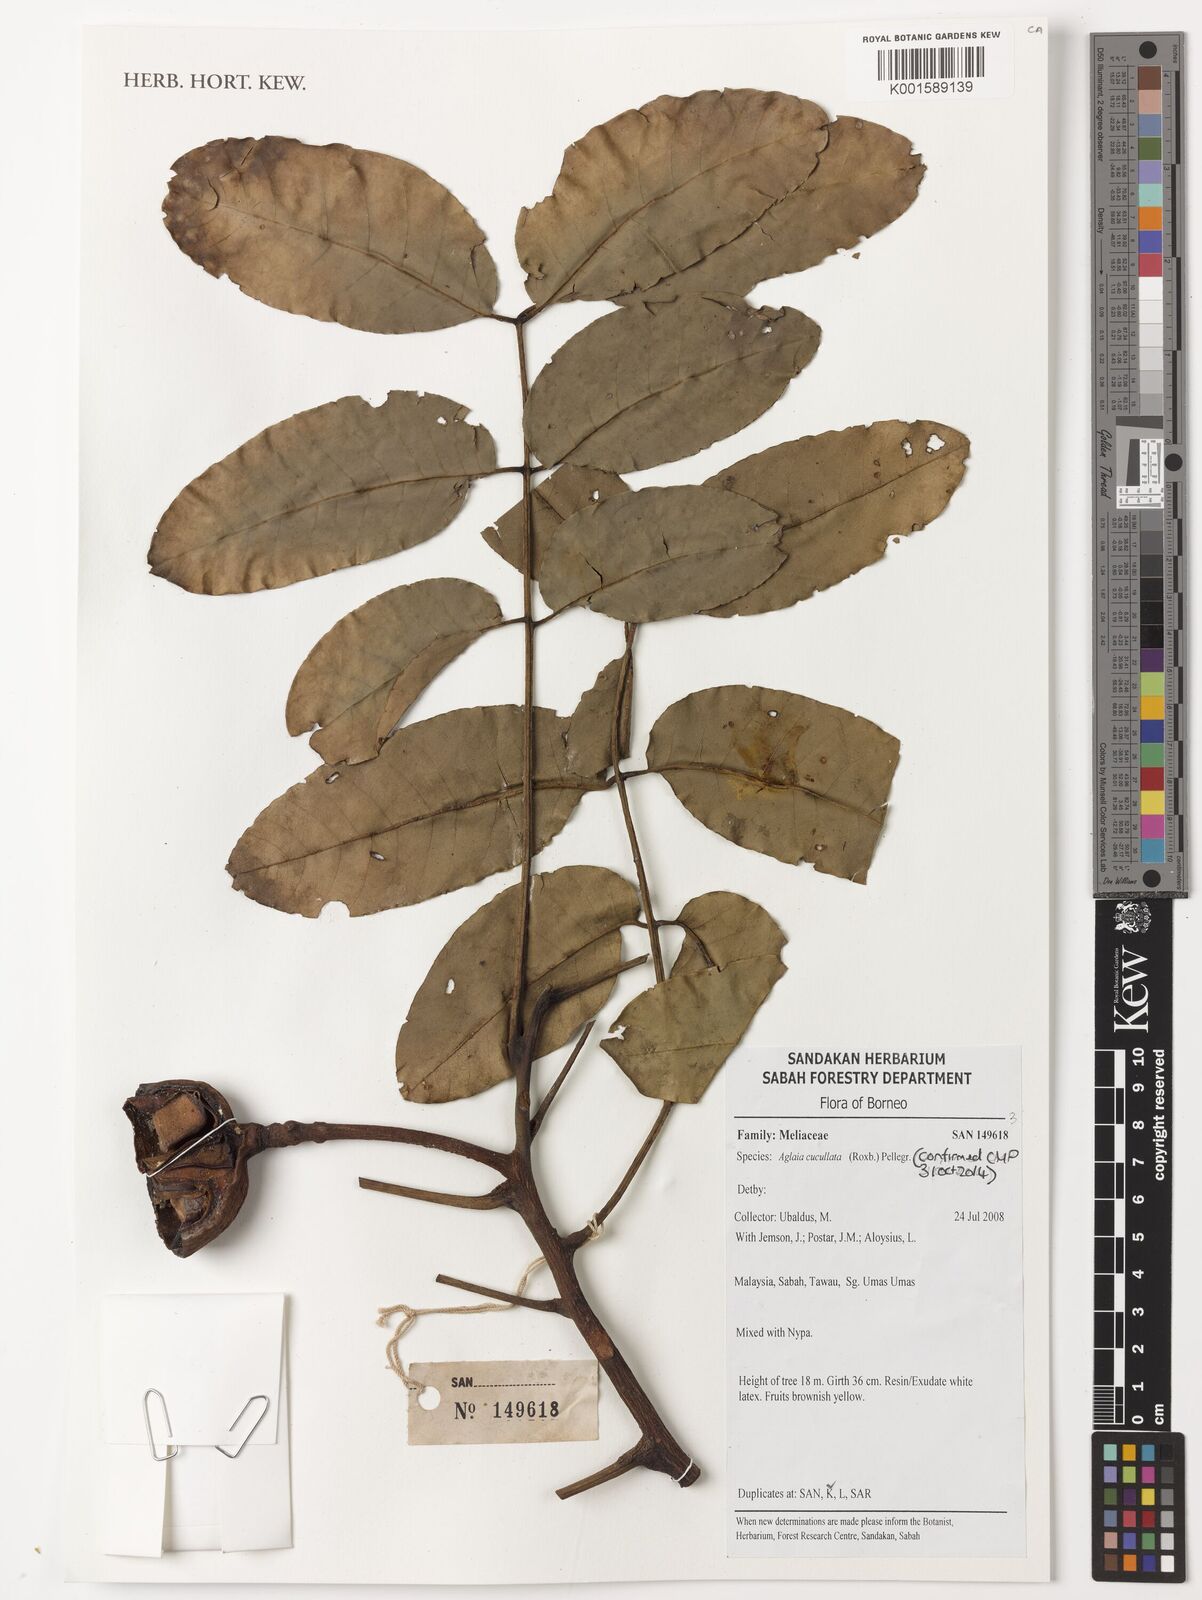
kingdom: Plantae
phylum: Tracheophyta
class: Magnoliopsida
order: Sapindales
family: Meliaceae
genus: Aglaia
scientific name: Aglaia cucullata
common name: Pacific maple
